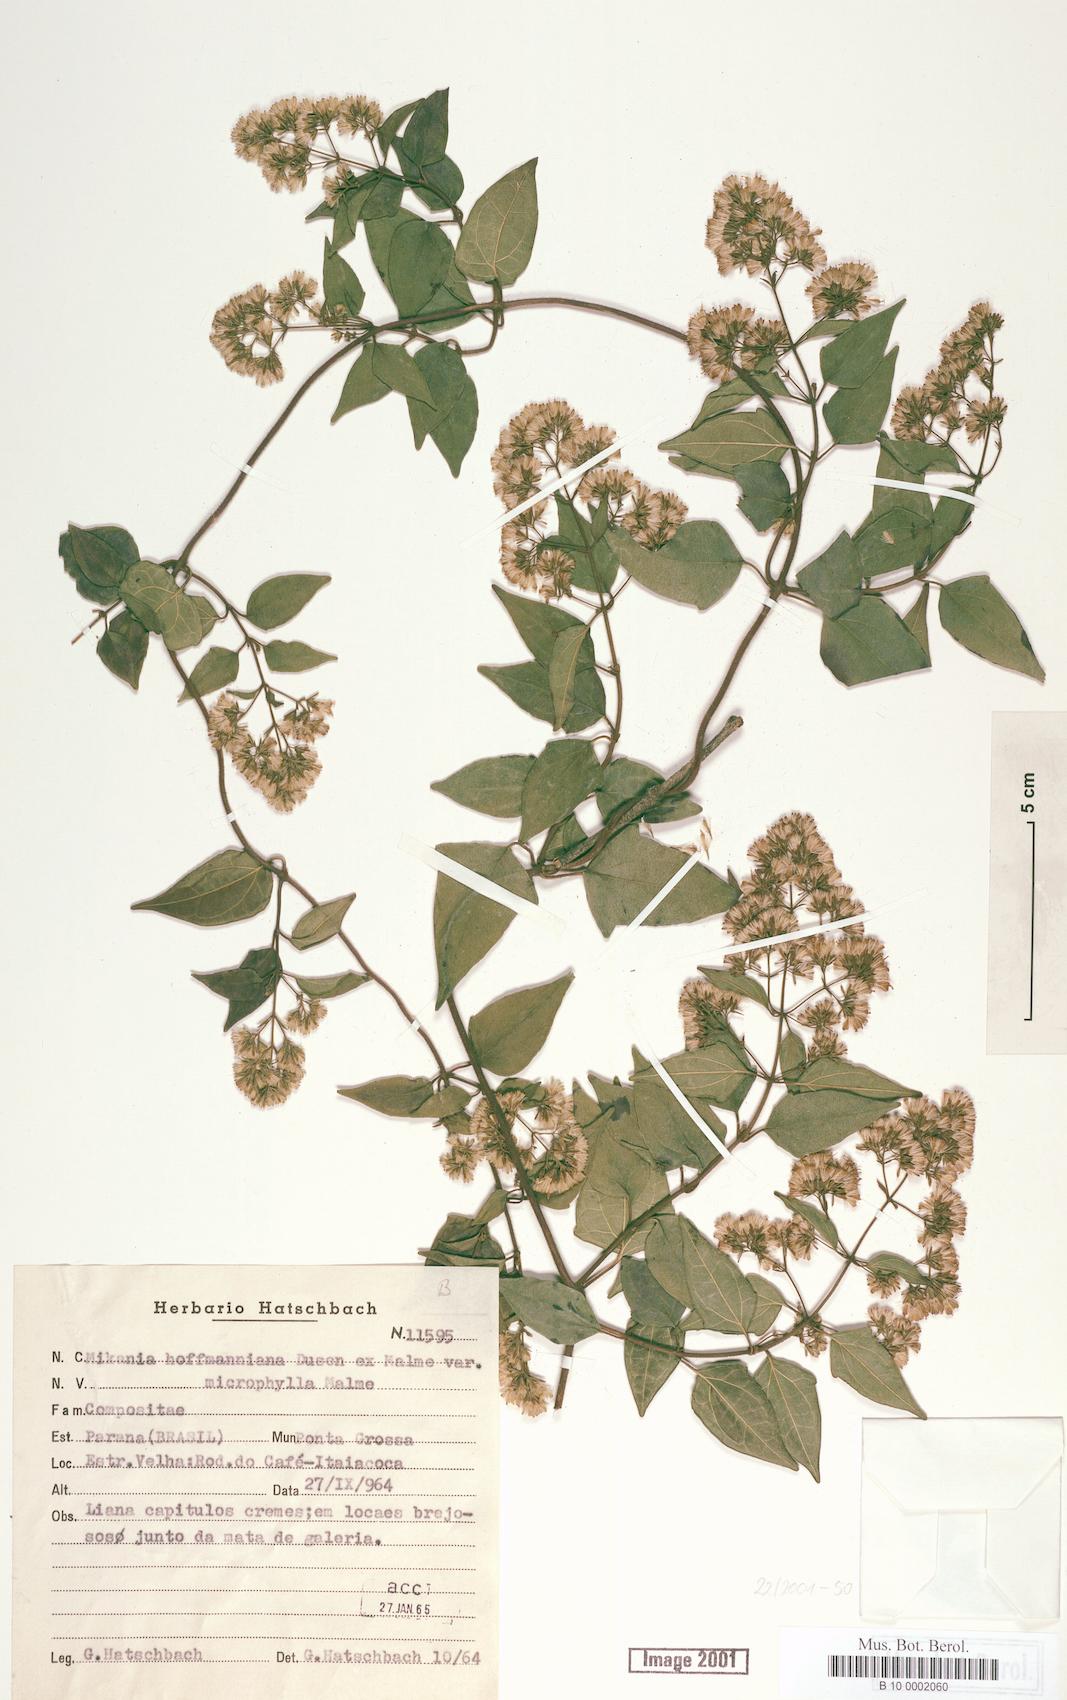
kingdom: Plantae
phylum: Tracheophyta
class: Magnoliopsida
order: Asterales
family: Asteraceae
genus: Mikania
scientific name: Mikania hoffmanniana
